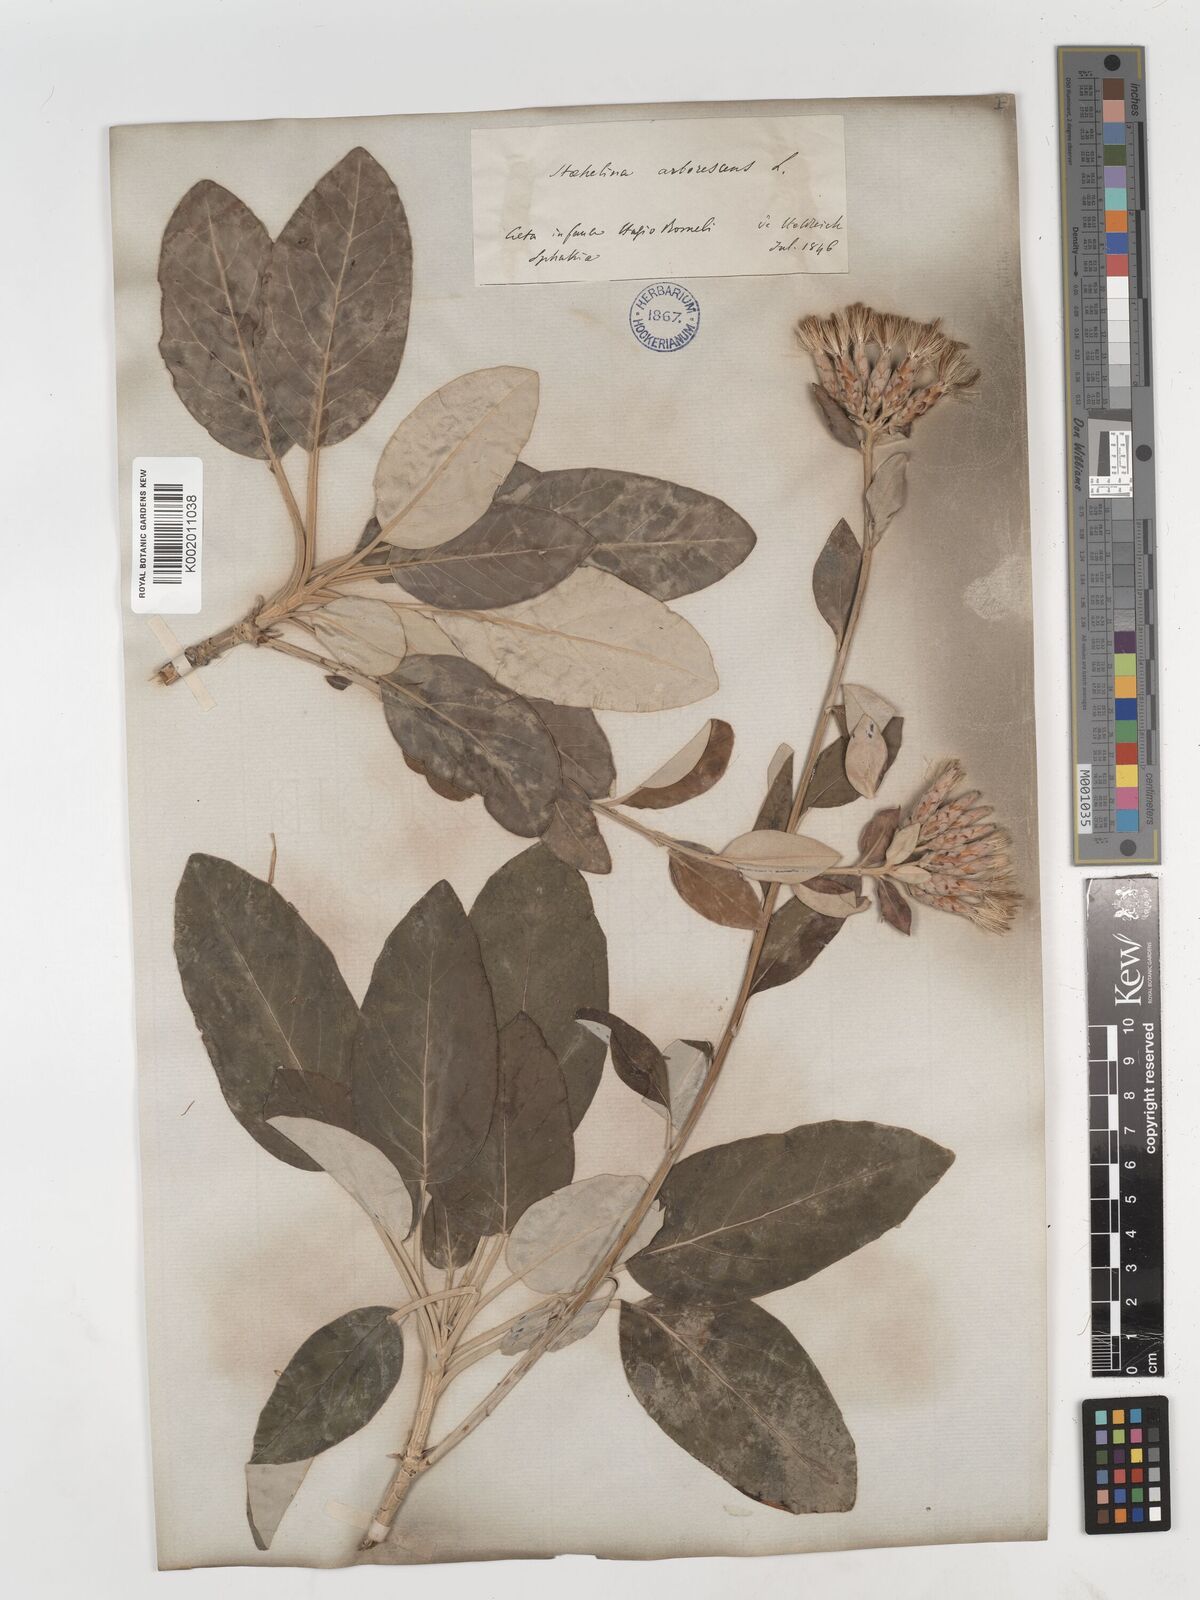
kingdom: Plantae
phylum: Tracheophyta
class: Magnoliopsida
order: Asterales
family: Asteraceae
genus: Staehelina
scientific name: Staehelina petiolata
